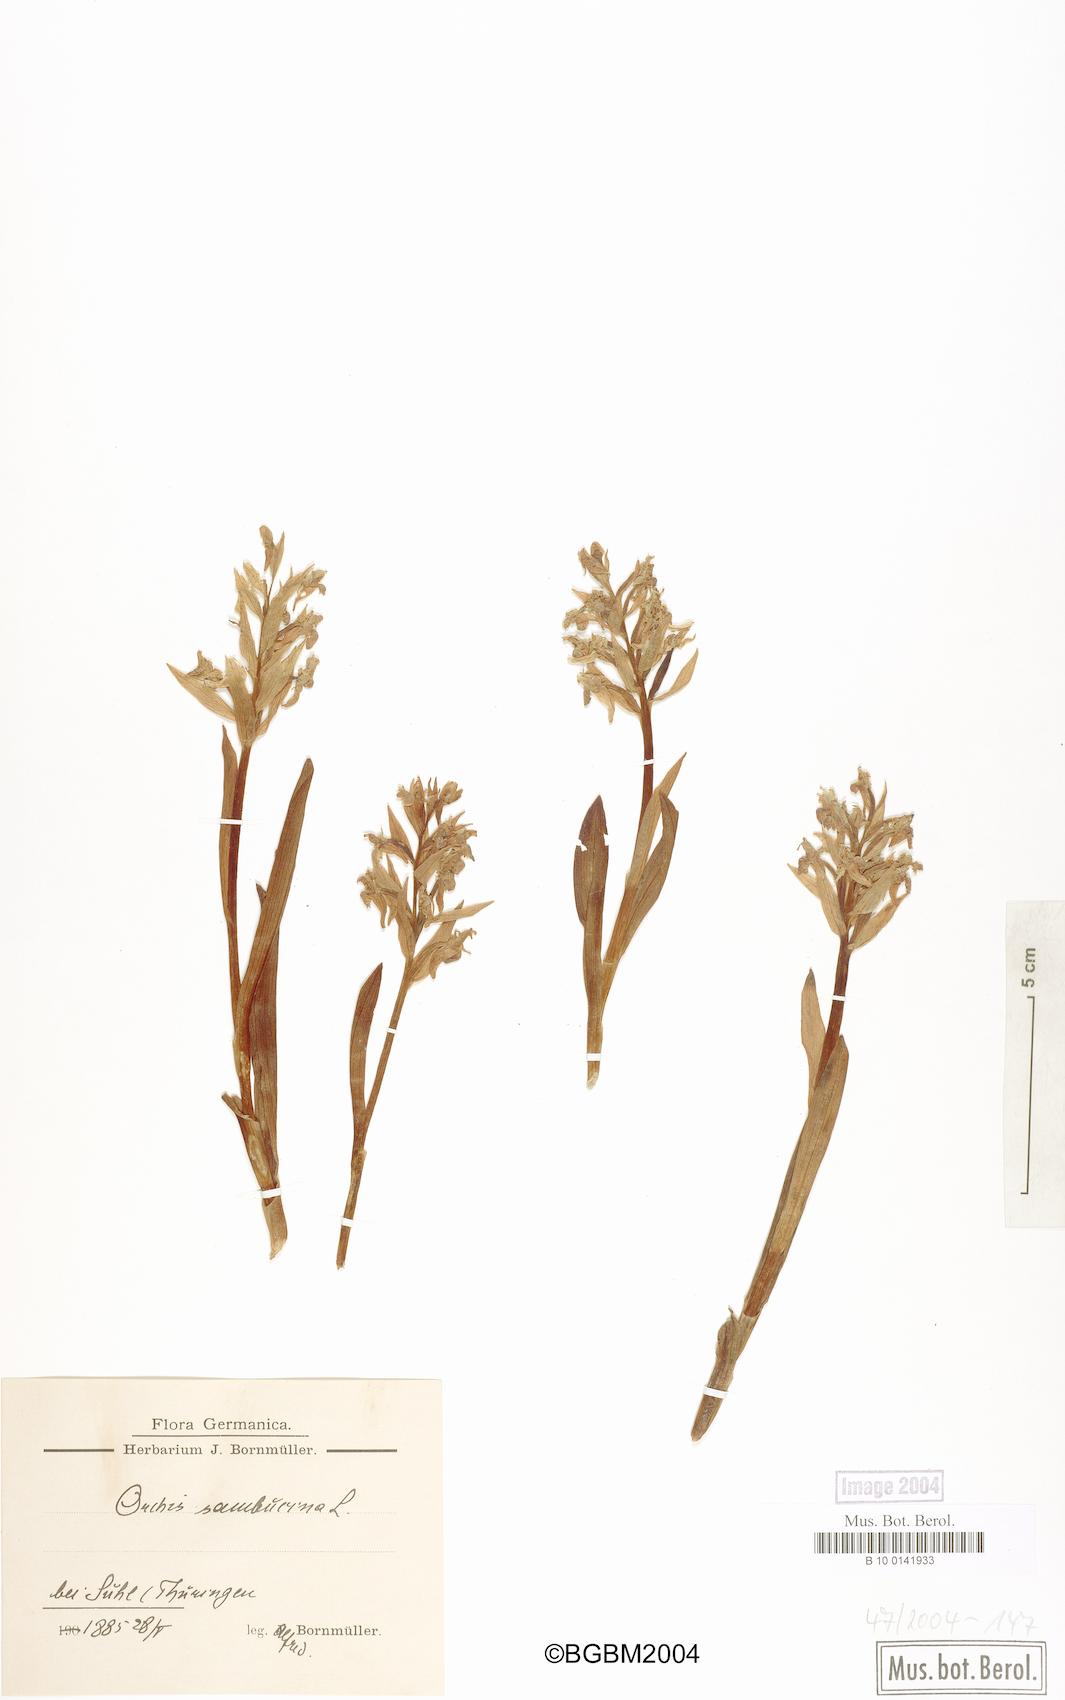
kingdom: Plantae
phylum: Tracheophyta
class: Liliopsida
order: Asparagales
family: Orchidaceae
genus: Dactylorhiza
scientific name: Dactylorhiza sambucina
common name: Elder-flowered orchid
